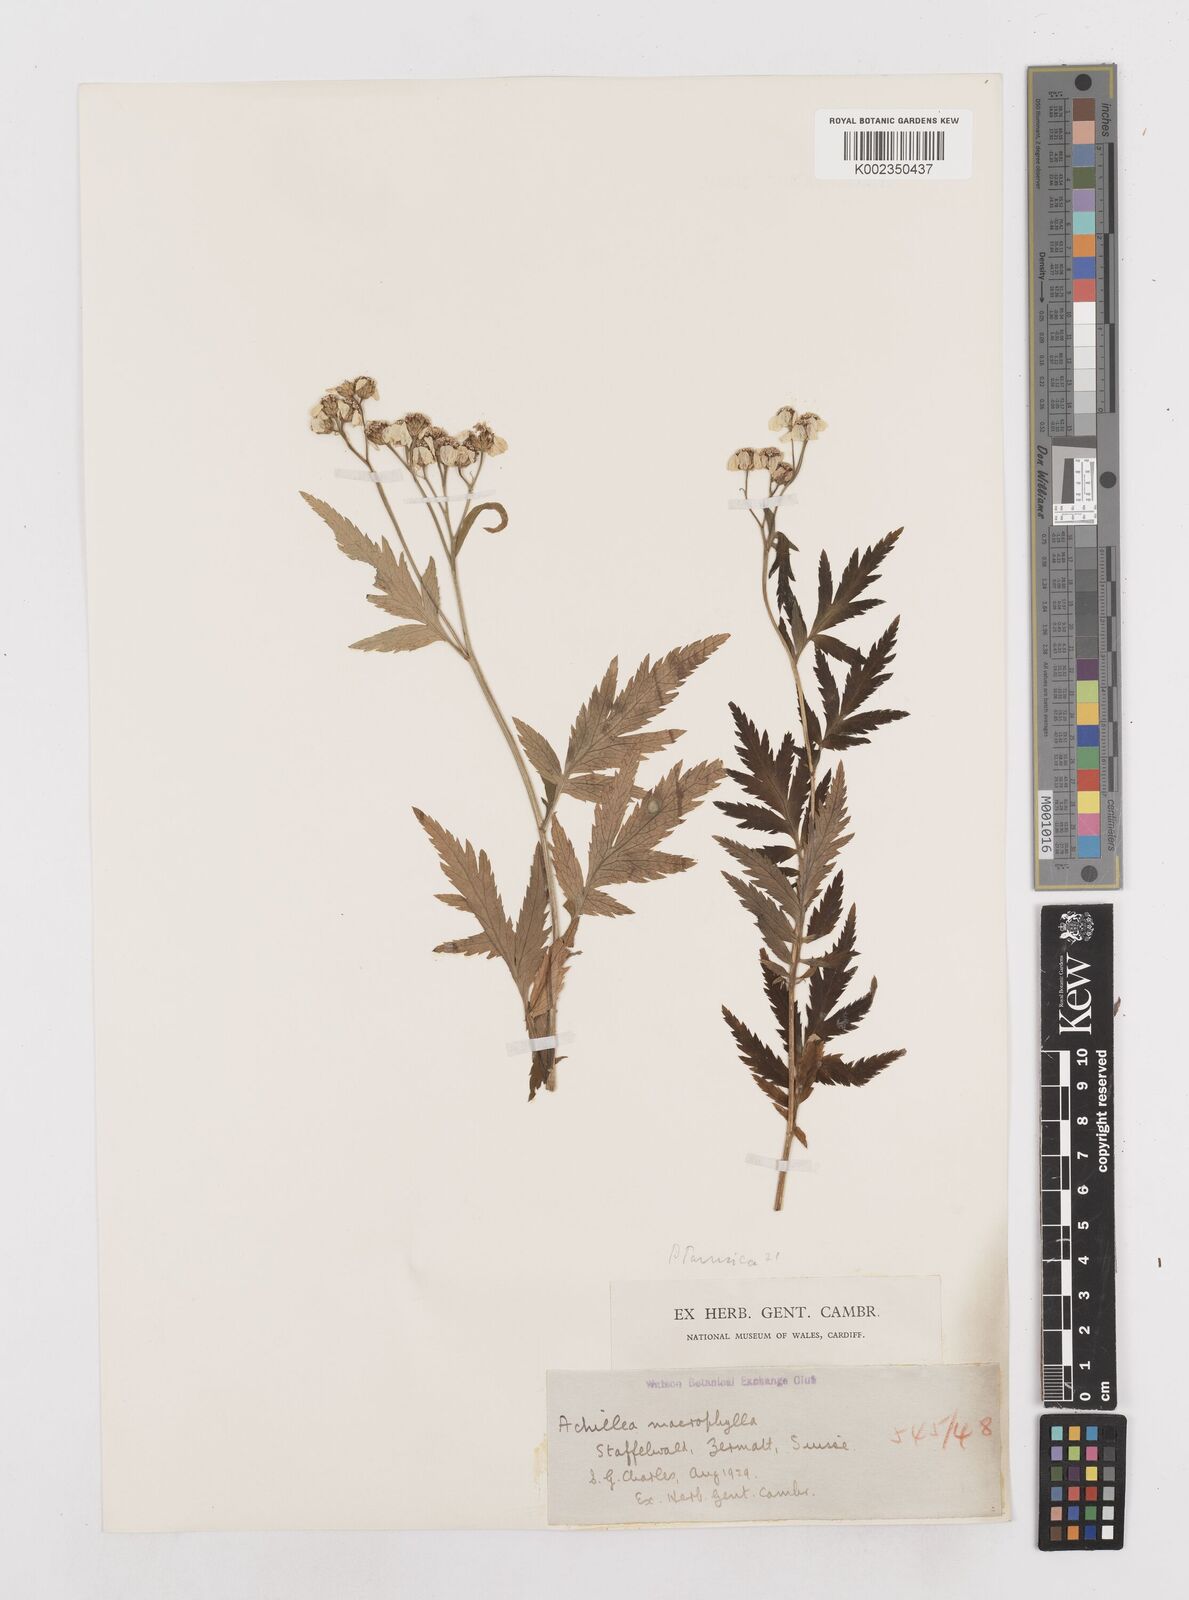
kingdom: Plantae
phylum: Tracheophyta
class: Magnoliopsida
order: Asterales
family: Asteraceae
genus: Achillea
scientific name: Achillea macrophylla
